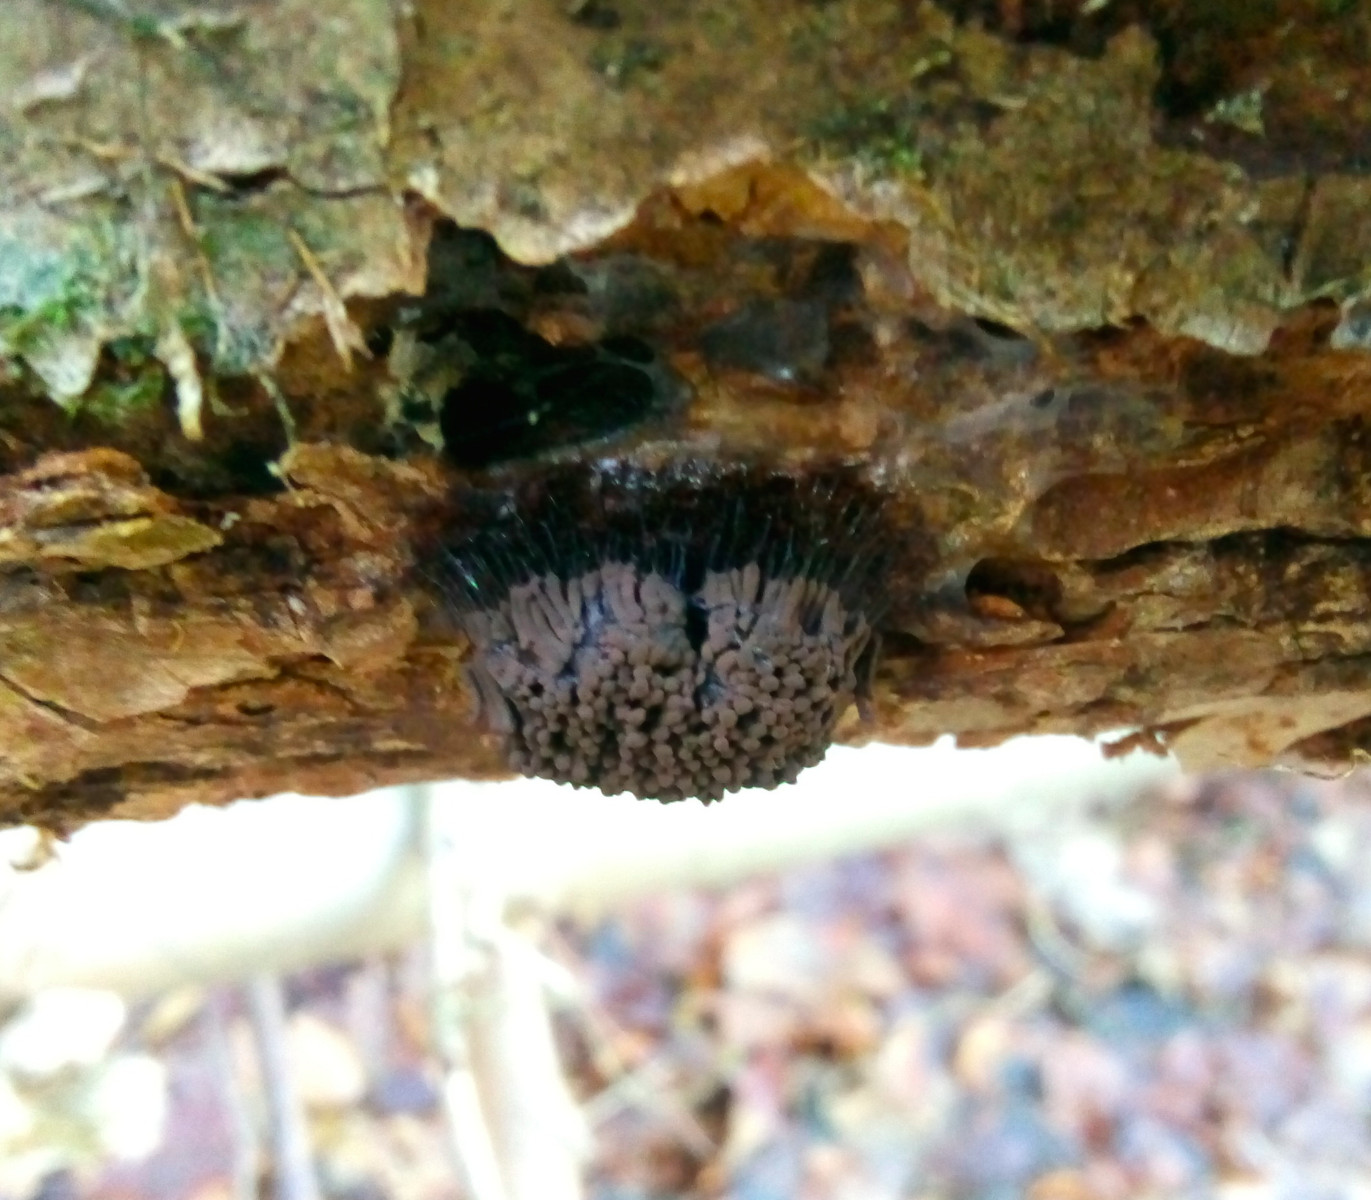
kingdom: Protozoa
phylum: Mycetozoa
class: Myxomycetes
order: Stemonitidales
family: Stemonitidaceae
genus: Stemonitis
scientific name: Stemonitis
